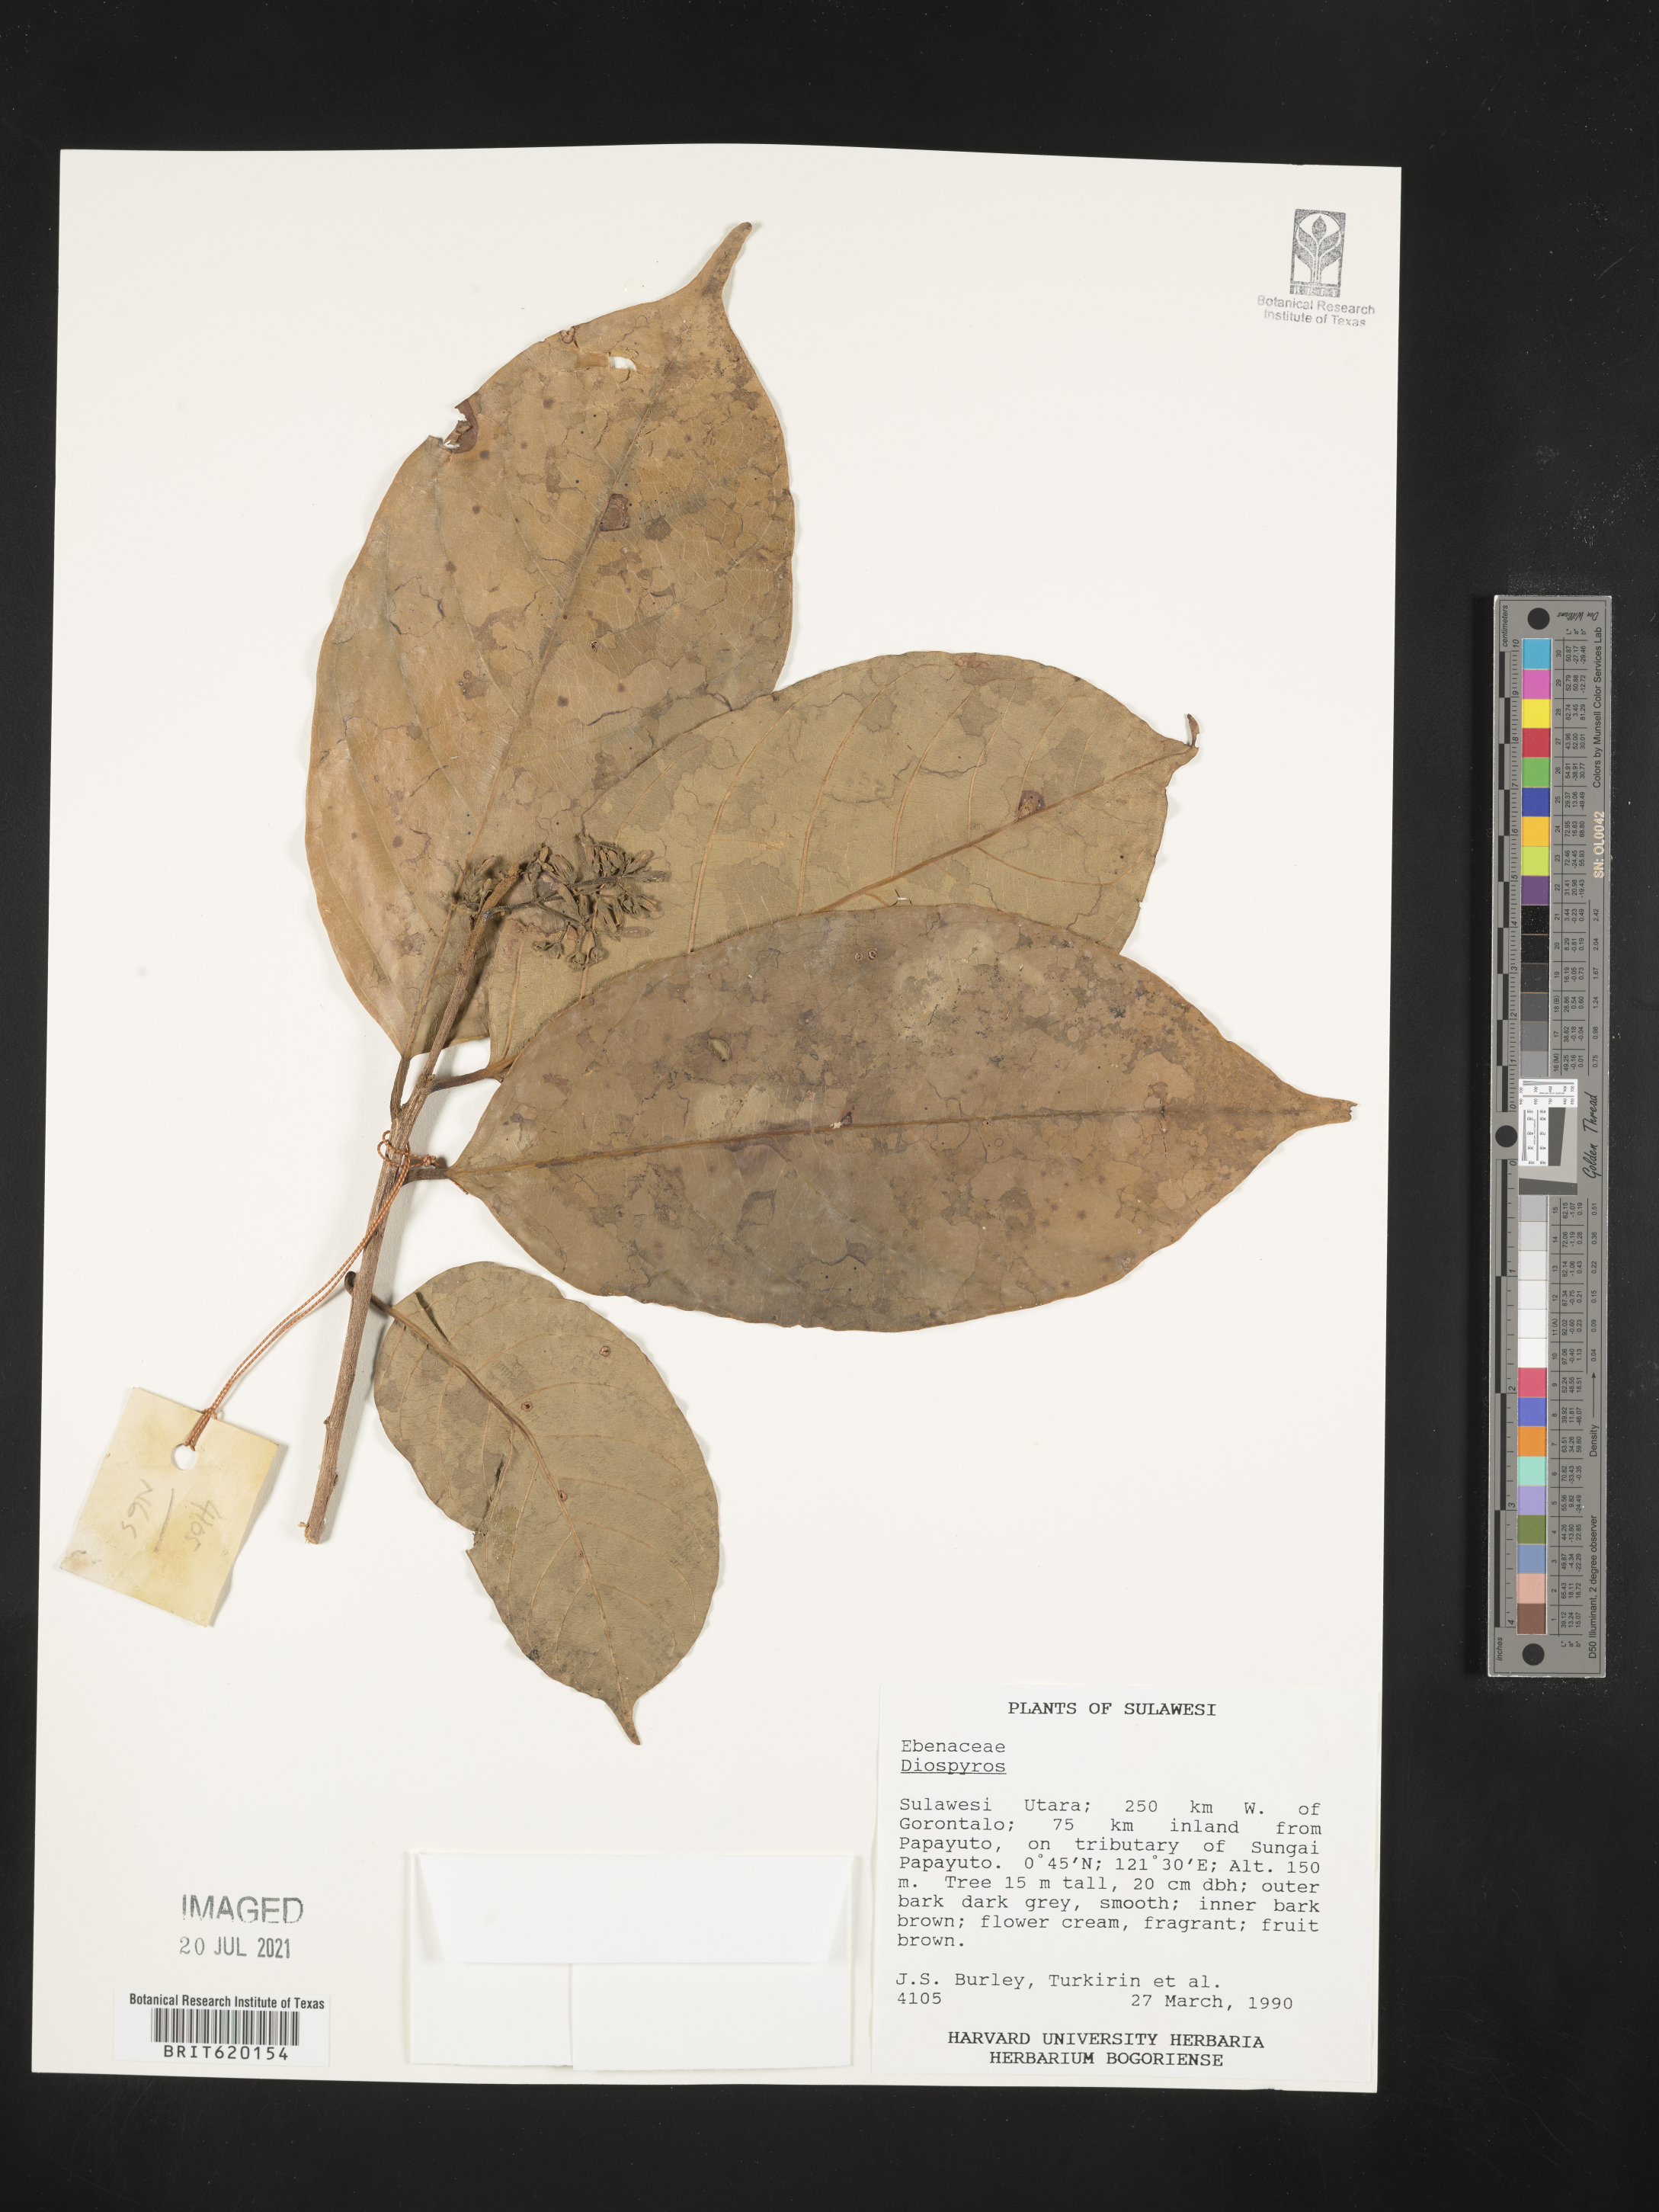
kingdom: Plantae
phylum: Tracheophyta
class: Magnoliopsida
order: Ericales
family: Ebenaceae
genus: Diospyros
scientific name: Diospyros
